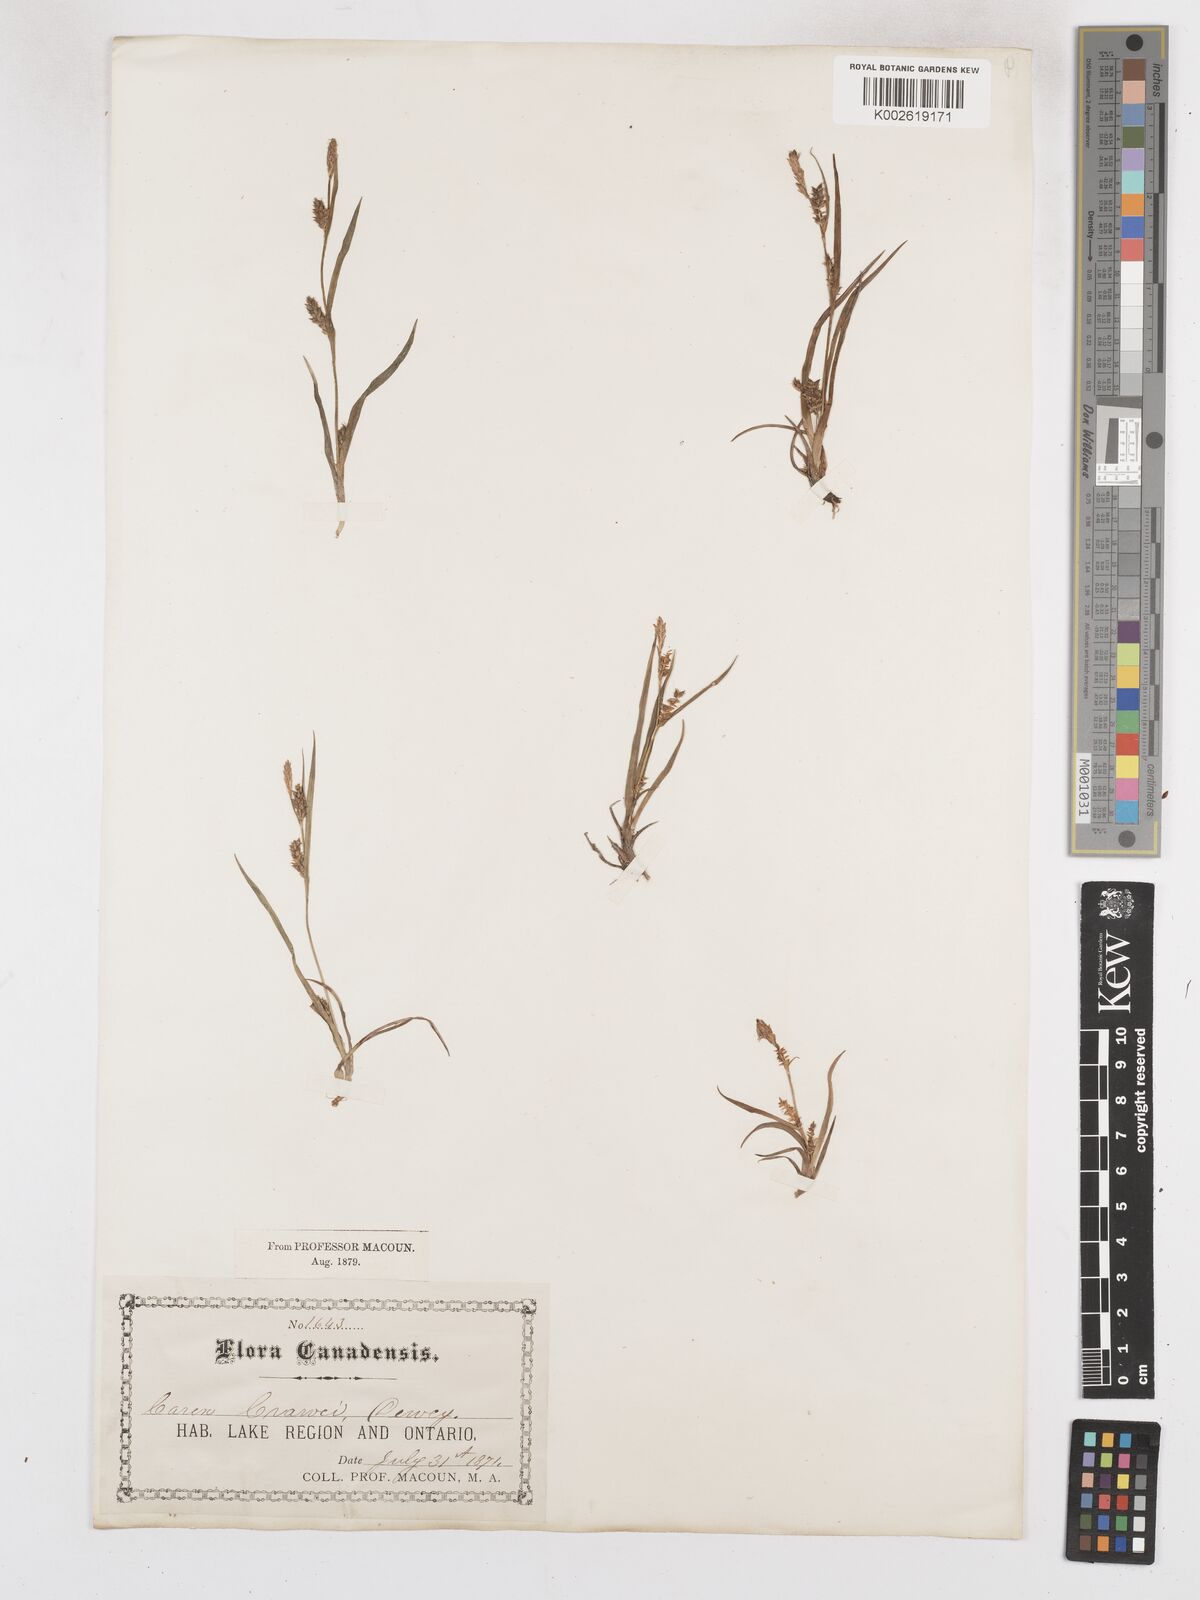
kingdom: Plantae
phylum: Tracheophyta
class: Liliopsida
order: Poales
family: Cyperaceae
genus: Carex
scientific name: Carex crawei
